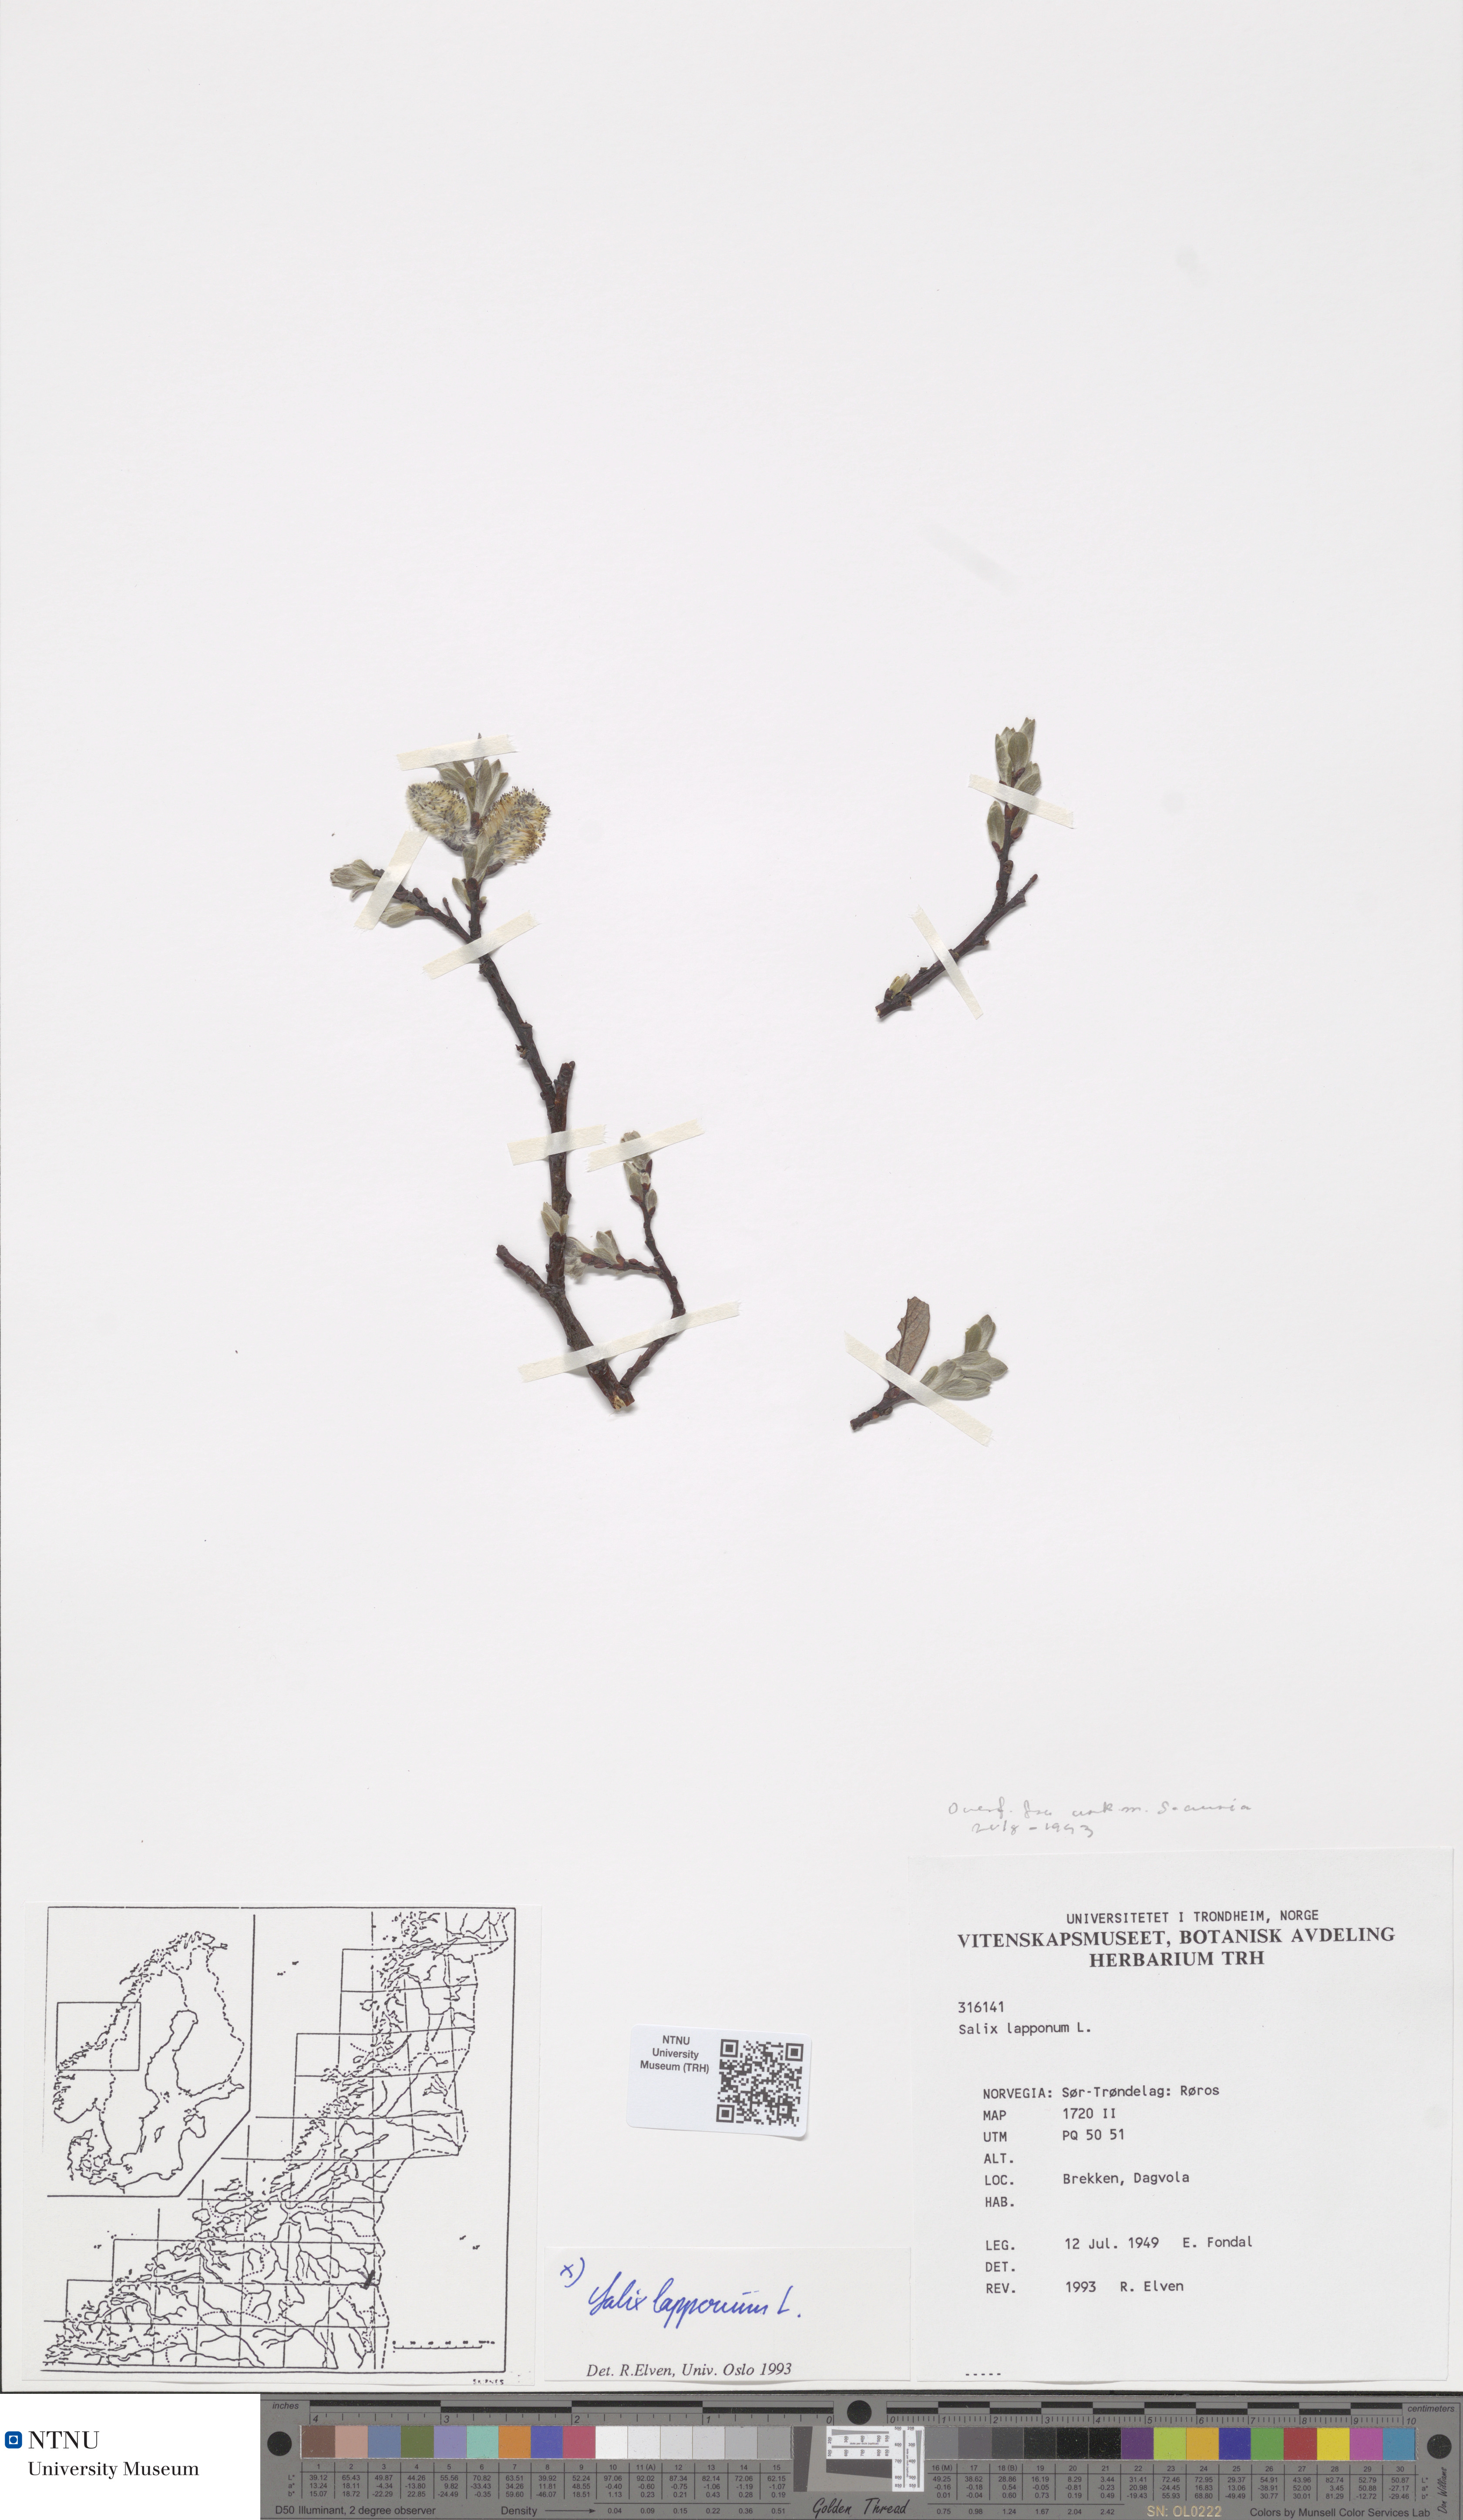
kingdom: Plantae
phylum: Tracheophyta
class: Magnoliopsida
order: Malpighiales
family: Salicaceae
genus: Salix
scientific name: Salix lapponum
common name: Downy willow
